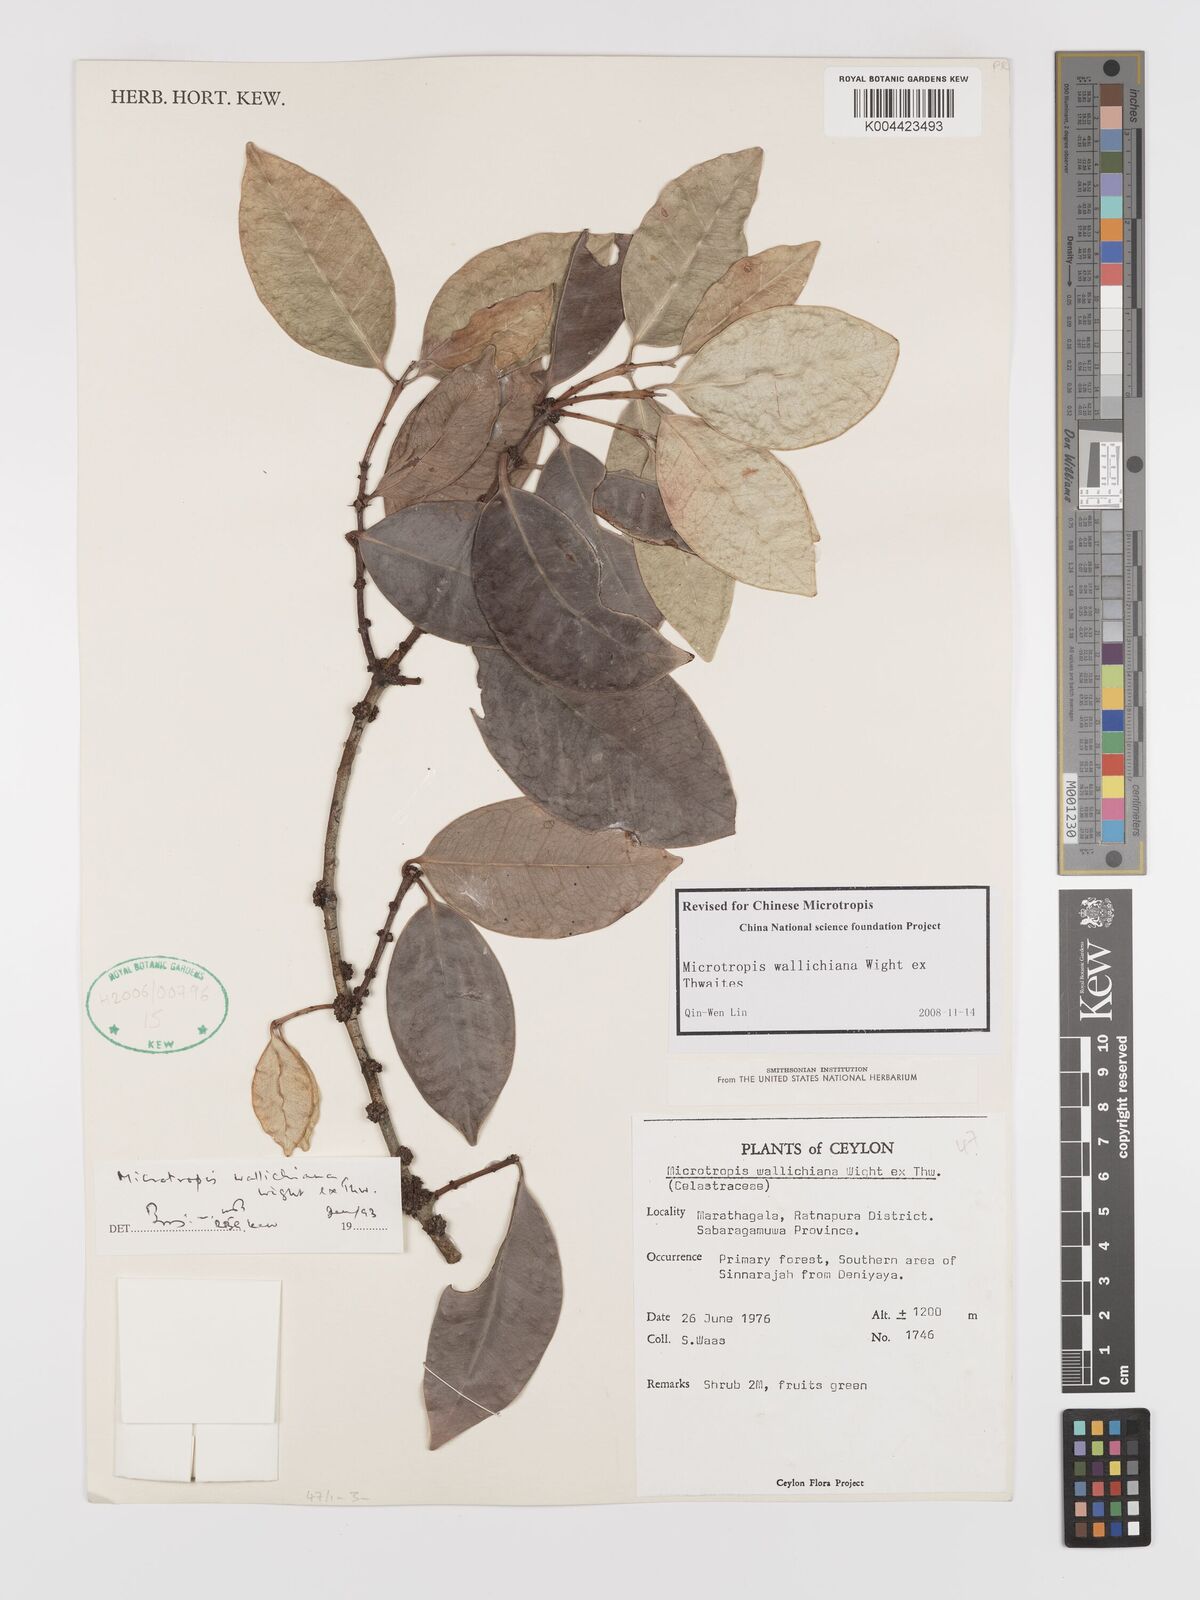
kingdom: Plantae
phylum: Tracheophyta
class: Magnoliopsida
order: Celastrales
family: Celastraceae
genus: Microtropis
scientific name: Microtropis wallichiana
